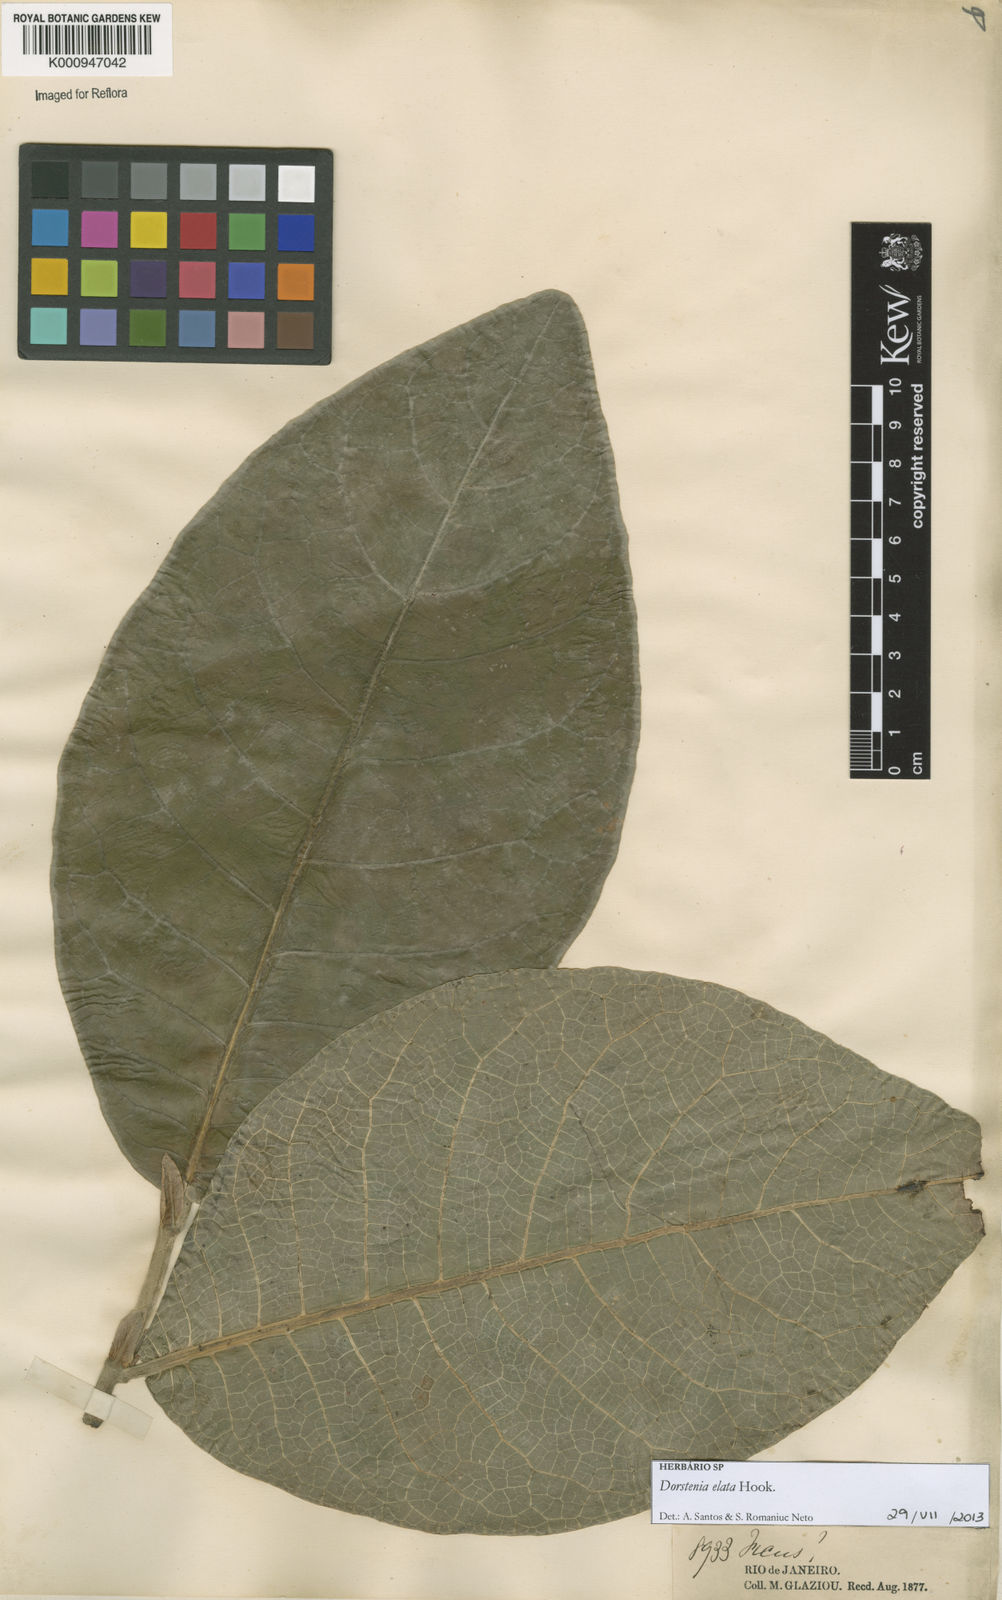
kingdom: Plantae
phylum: Tracheophyta
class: Magnoliopsida
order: Rosales
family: Moraceae
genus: Dorstenia
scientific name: Dorstenia
